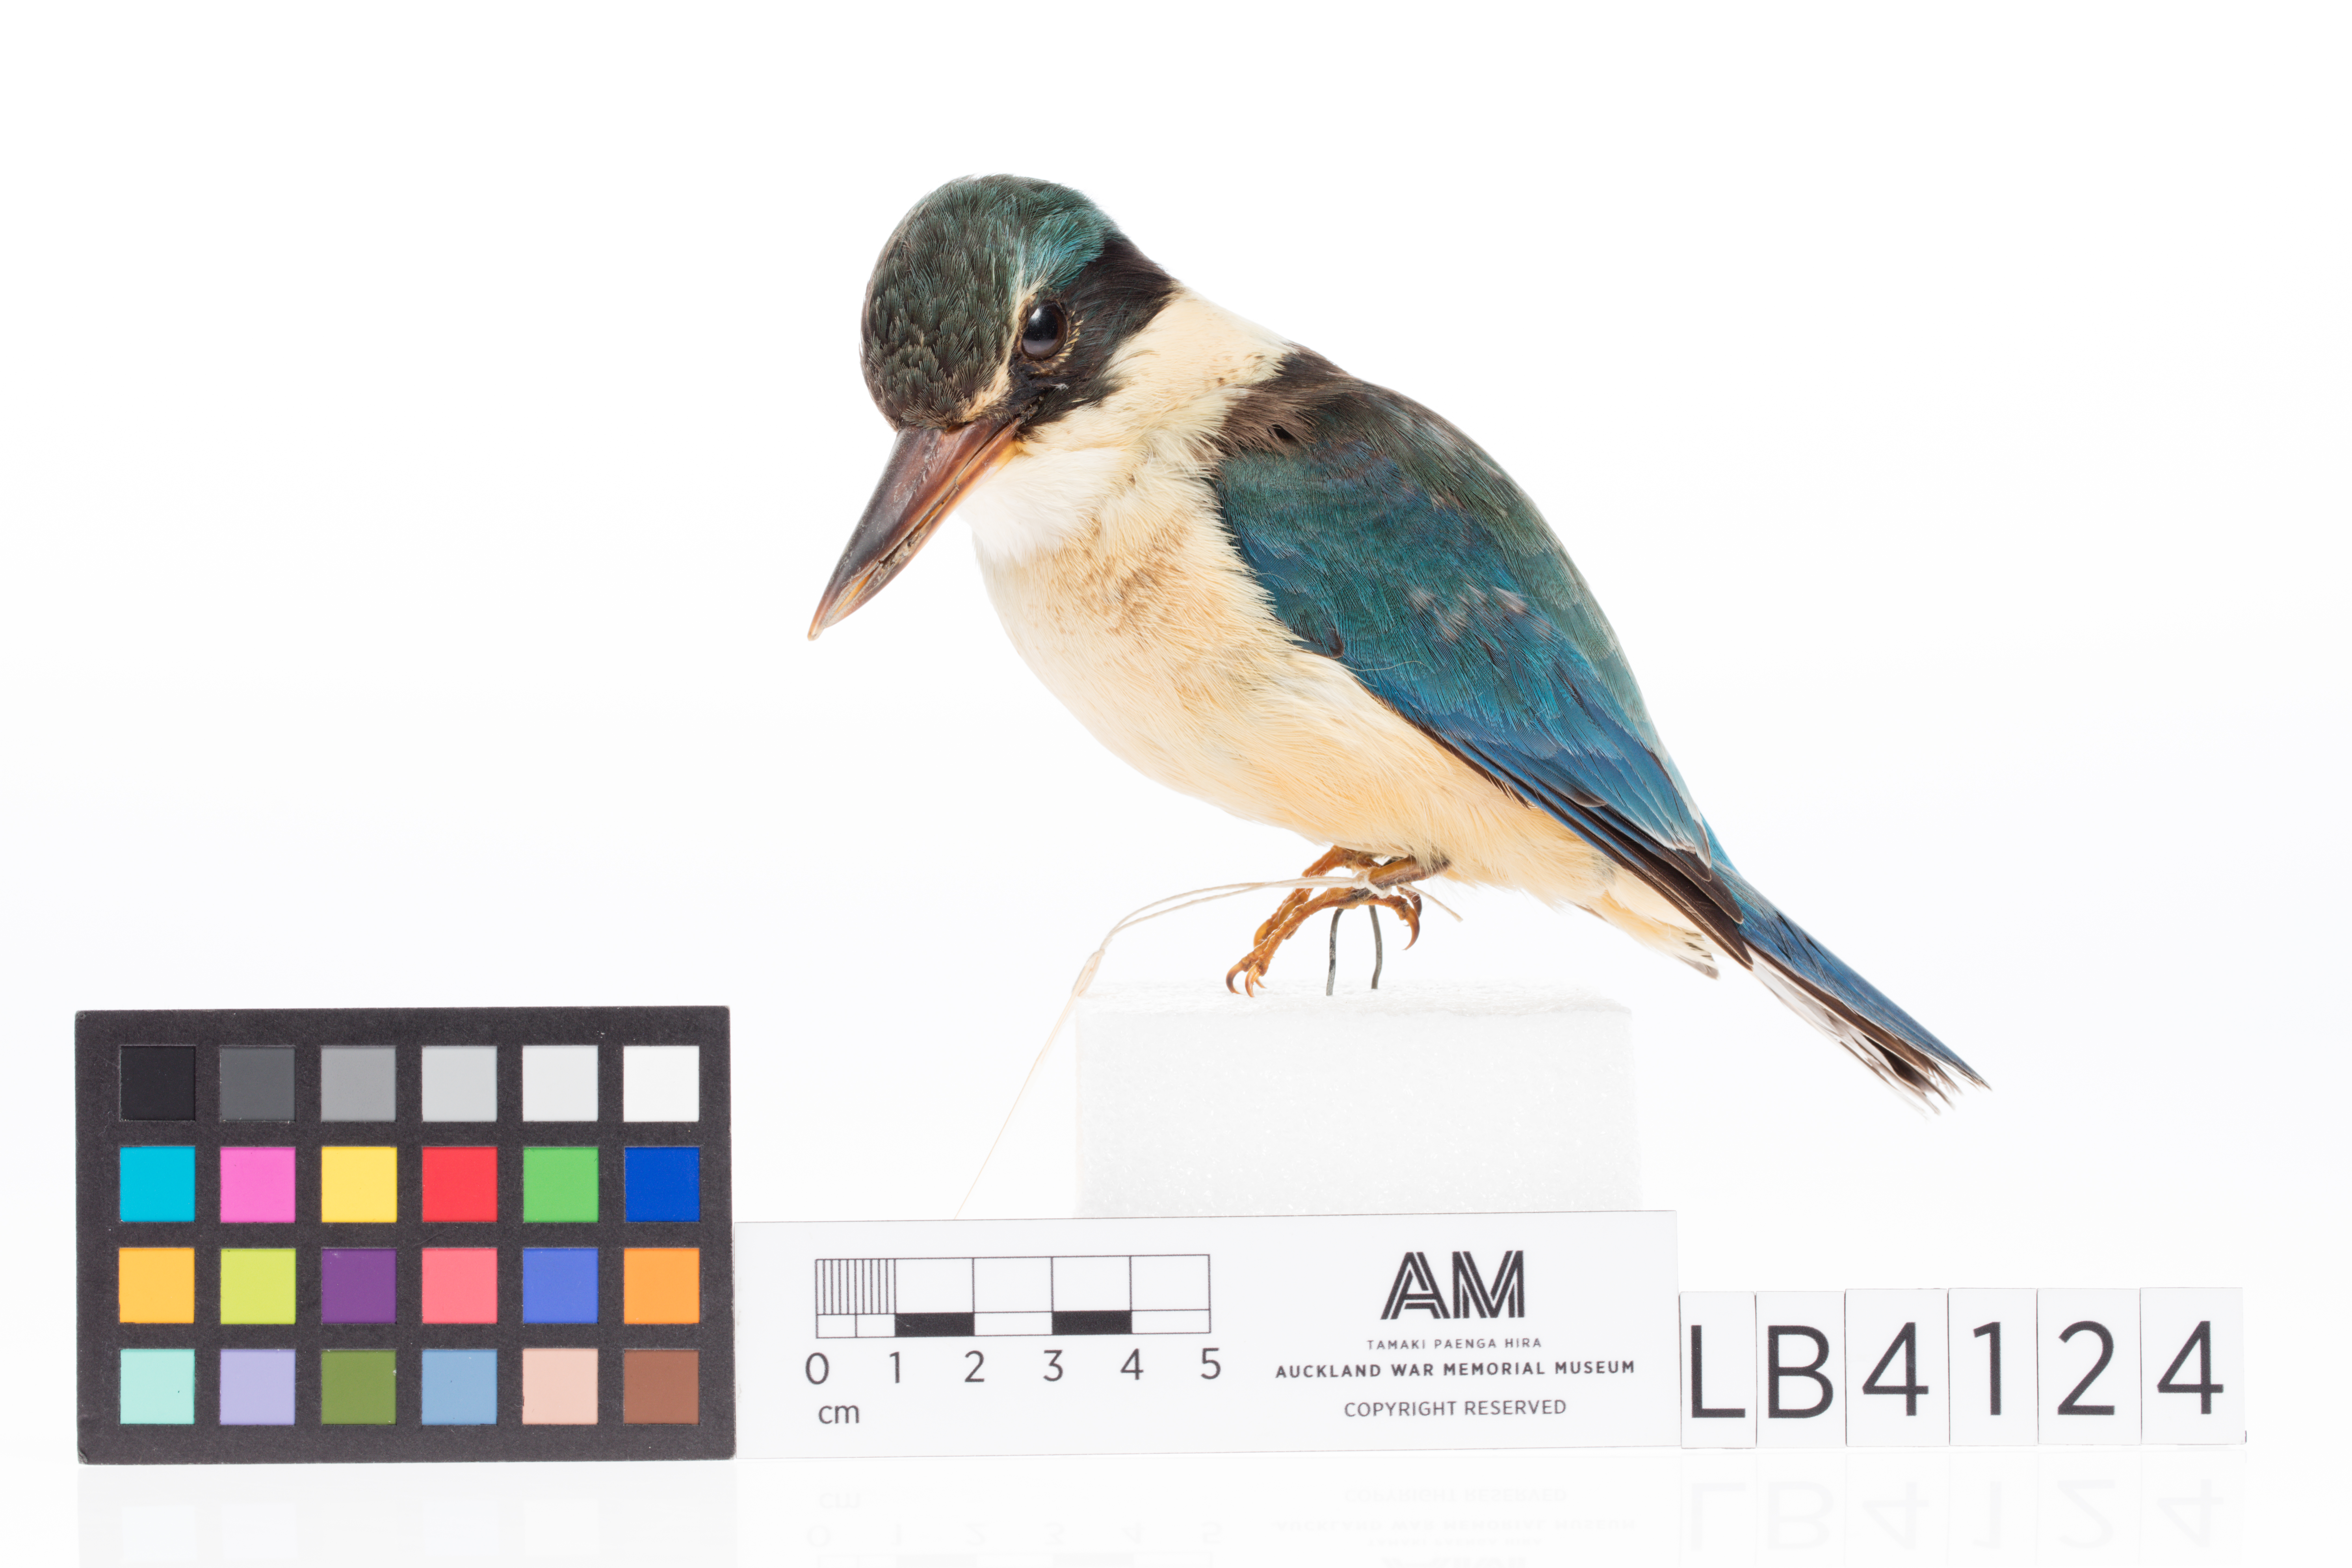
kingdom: Animalia
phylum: Chordata
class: Aves
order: Coraciiformes
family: Alcedinidae
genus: Todiramphus
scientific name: Todiramphus sanctus
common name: Sacred kingfisher
